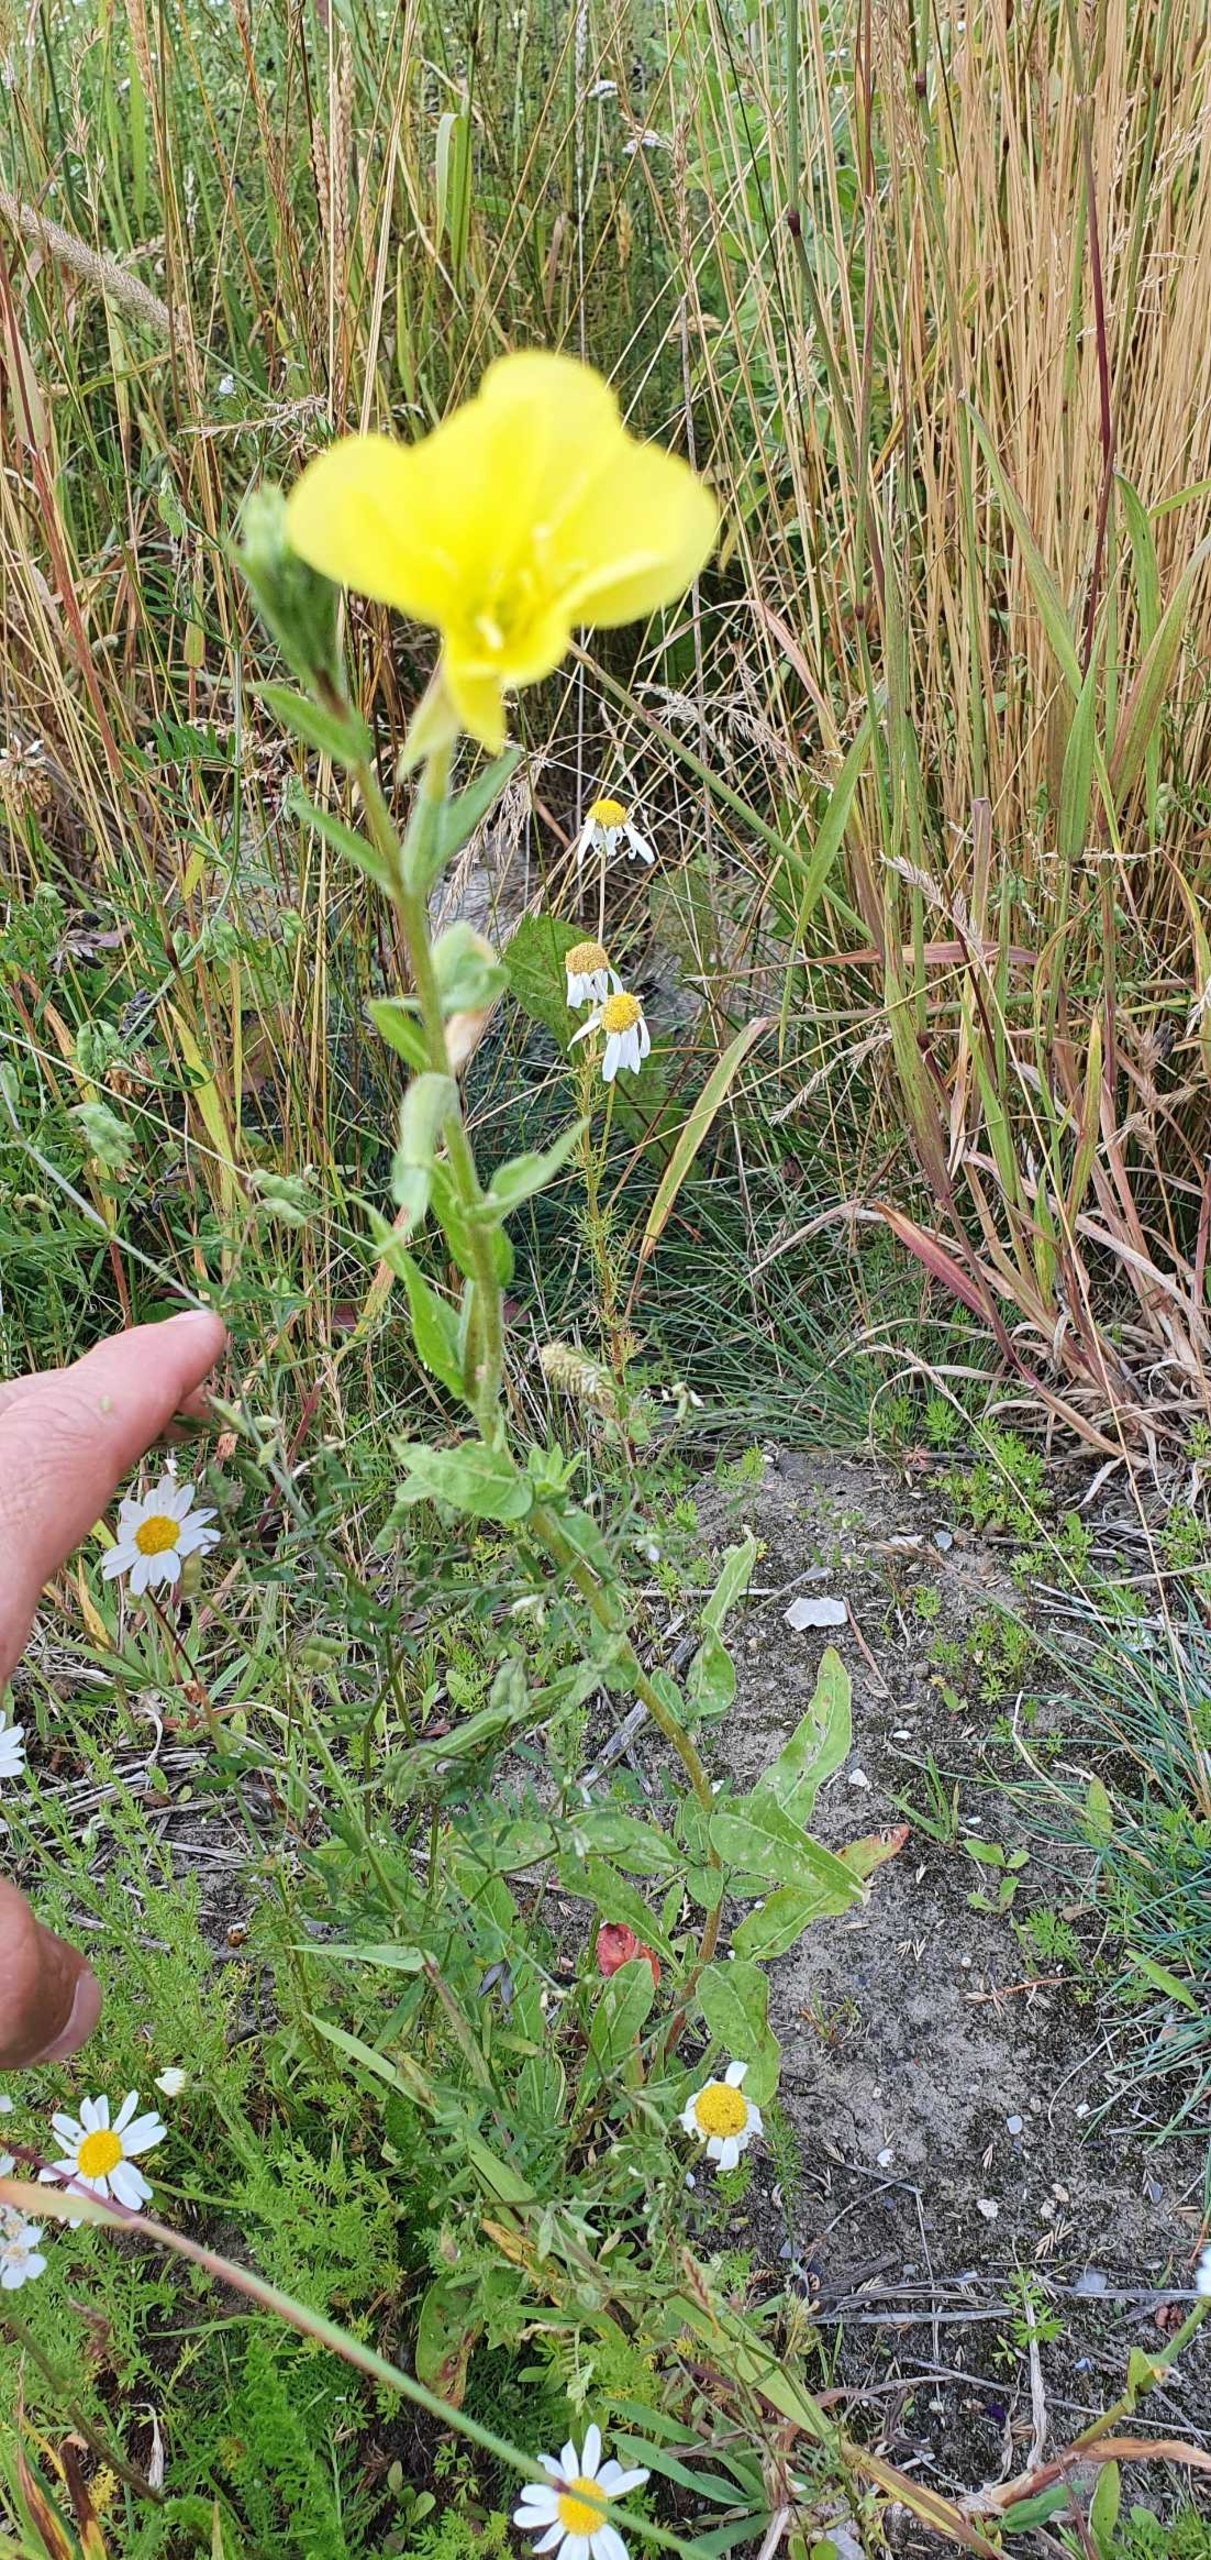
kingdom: Plantae
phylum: Tracheophyta
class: Magnoliopsida
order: Myrtales
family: Onagraceae
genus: Oenothera
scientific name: Oenothera
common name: Natlysslægten
